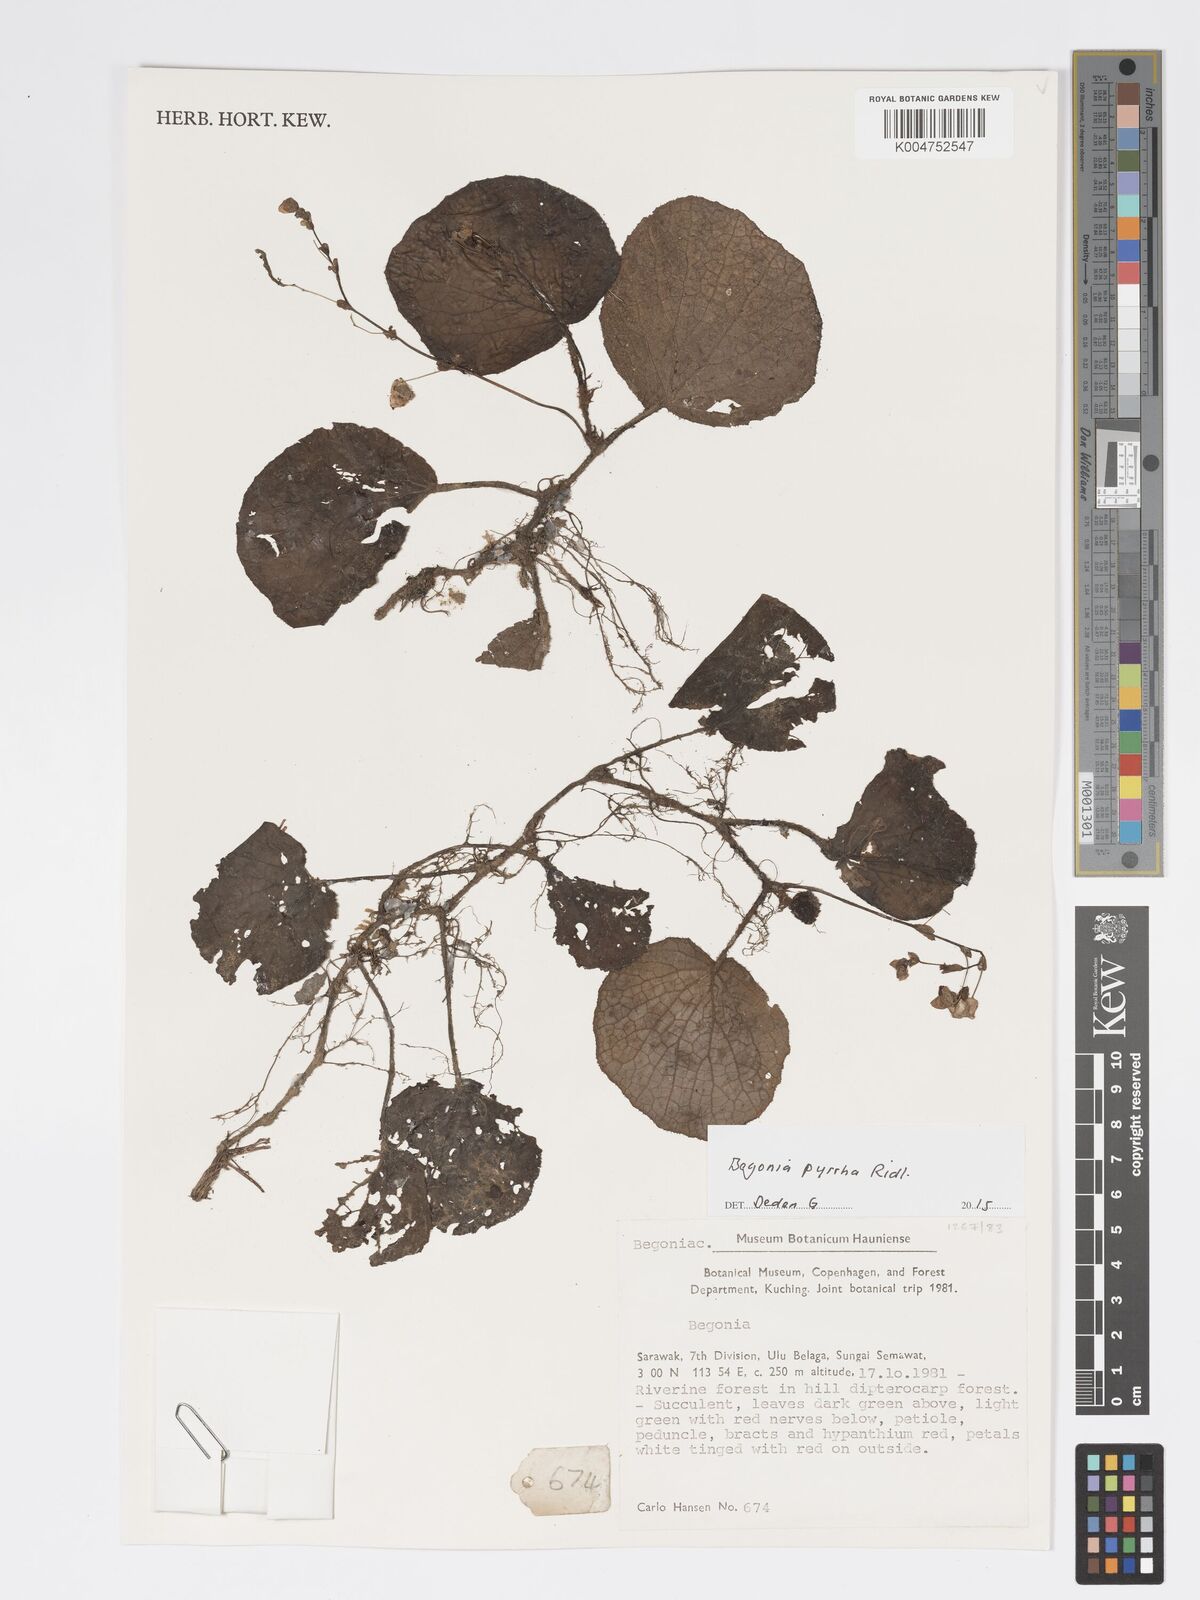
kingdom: Plantae
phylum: Tracheophyta
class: Magnoliopsida
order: Cucurbitales
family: Begoniaceae
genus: Begonia
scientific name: Begonia pyrrha
